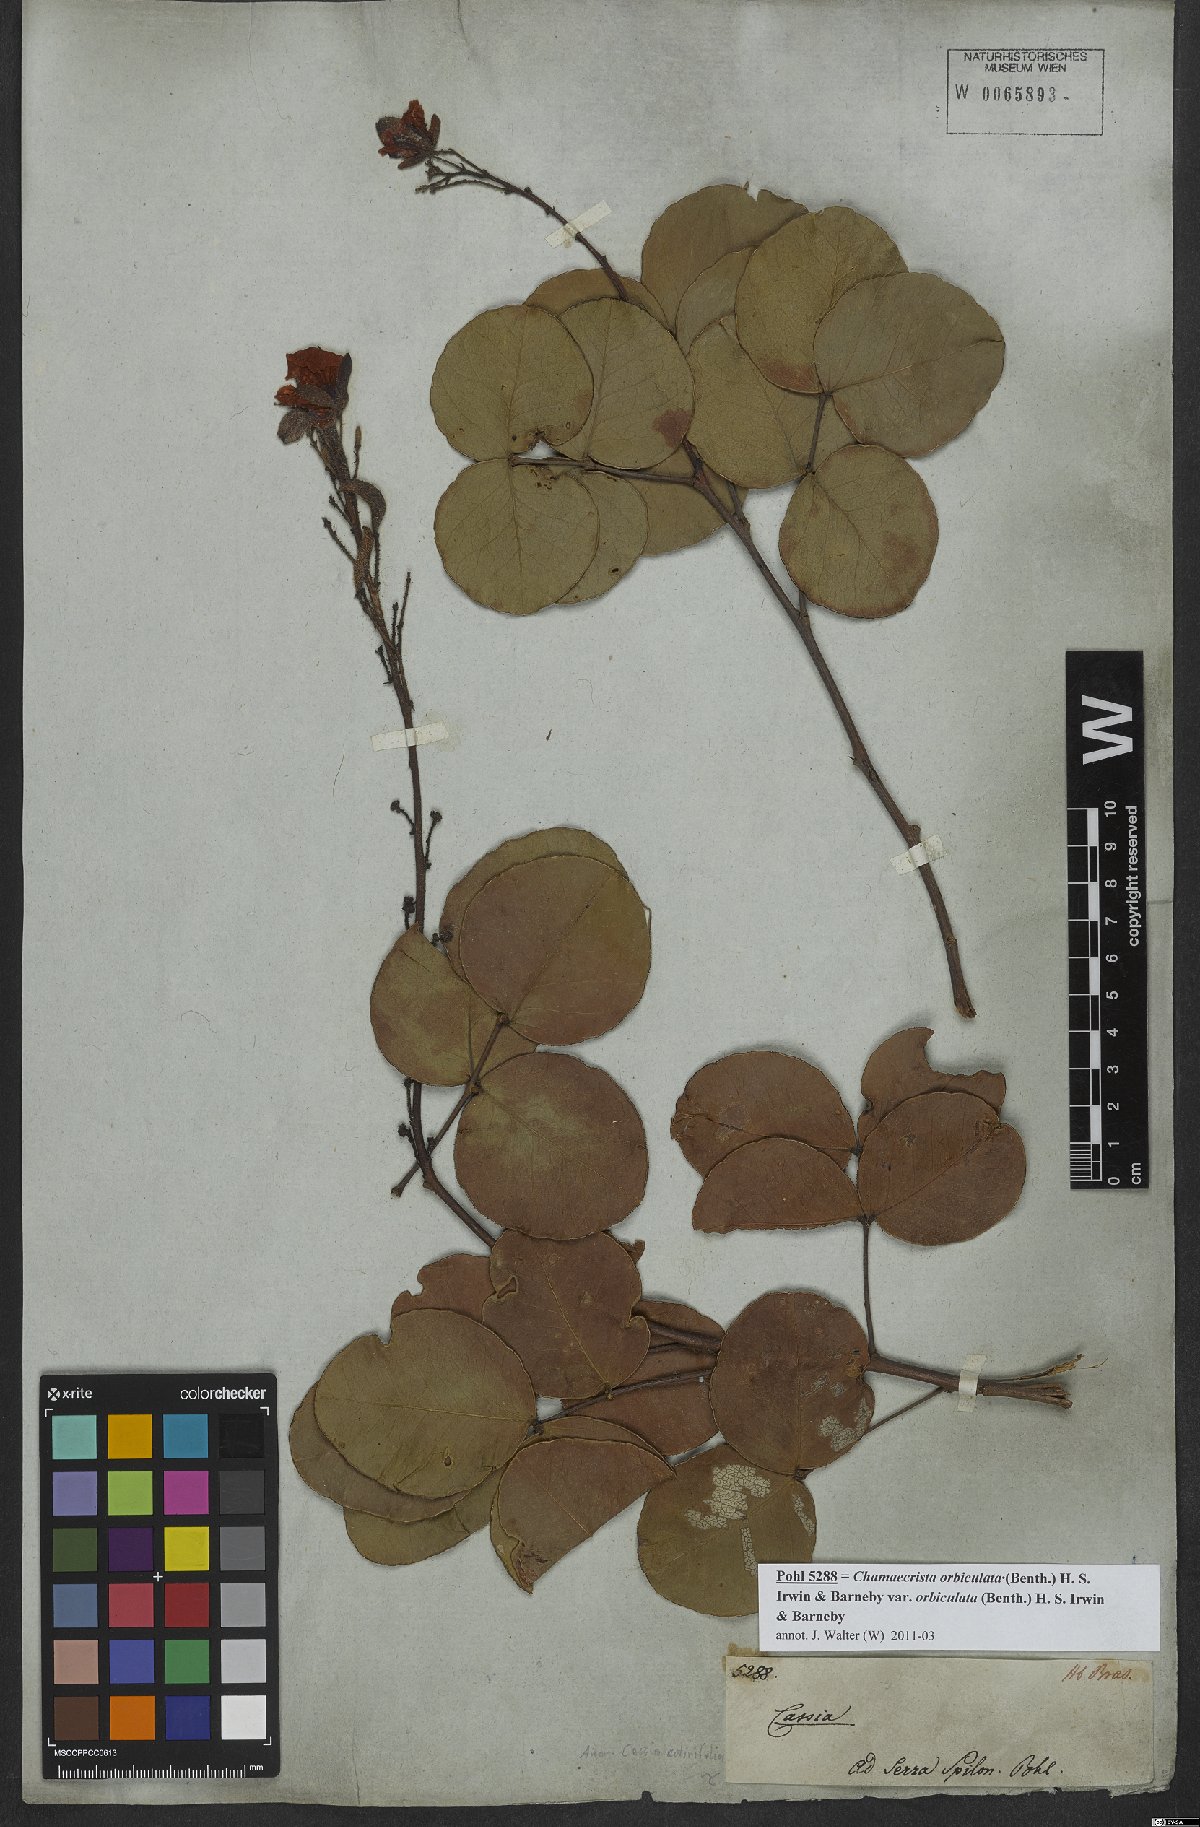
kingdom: Plantae
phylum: Tracheophyta
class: Magnoliopsida
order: Fabales
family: Fabaceae
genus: Chamaecrista
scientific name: Chamaecrista cotinifolia
